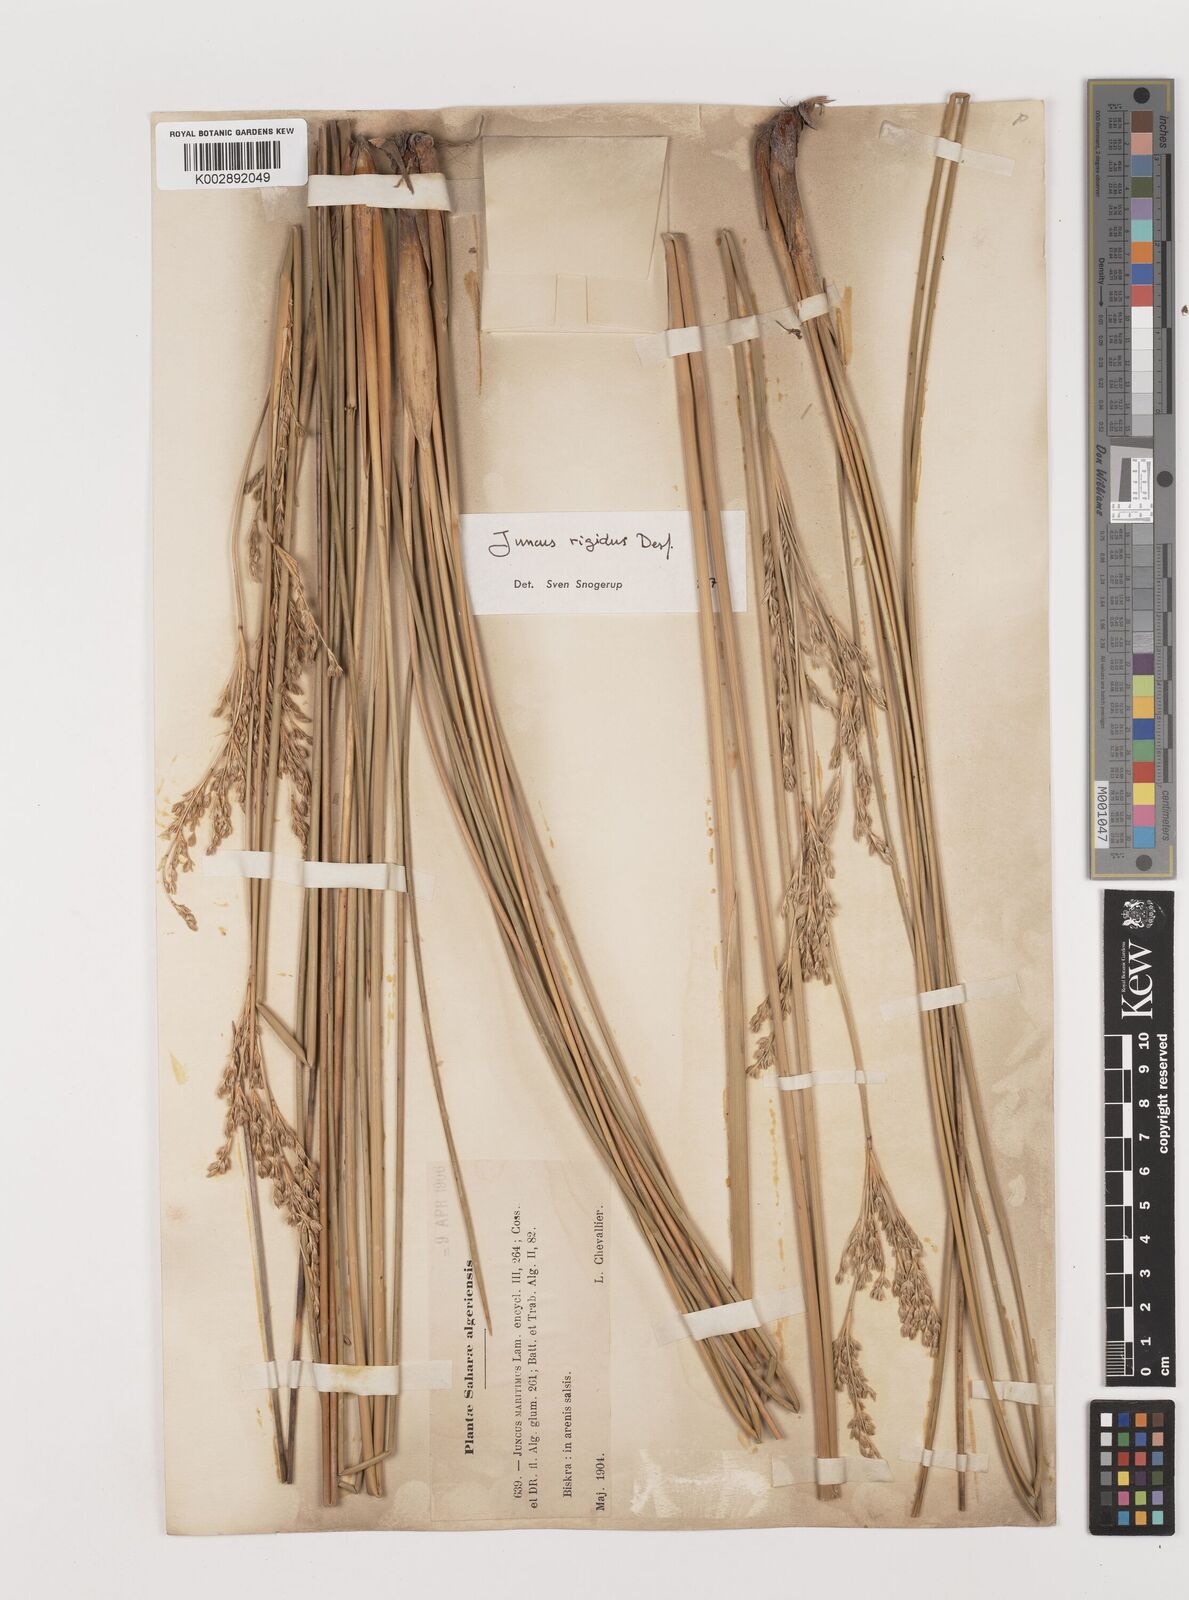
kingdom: Plantae
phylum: Tracheophyta
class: Liliopsida
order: Poales
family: Juncaceae
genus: Juncus
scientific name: Juncus rigidus
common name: Hard sea rush
